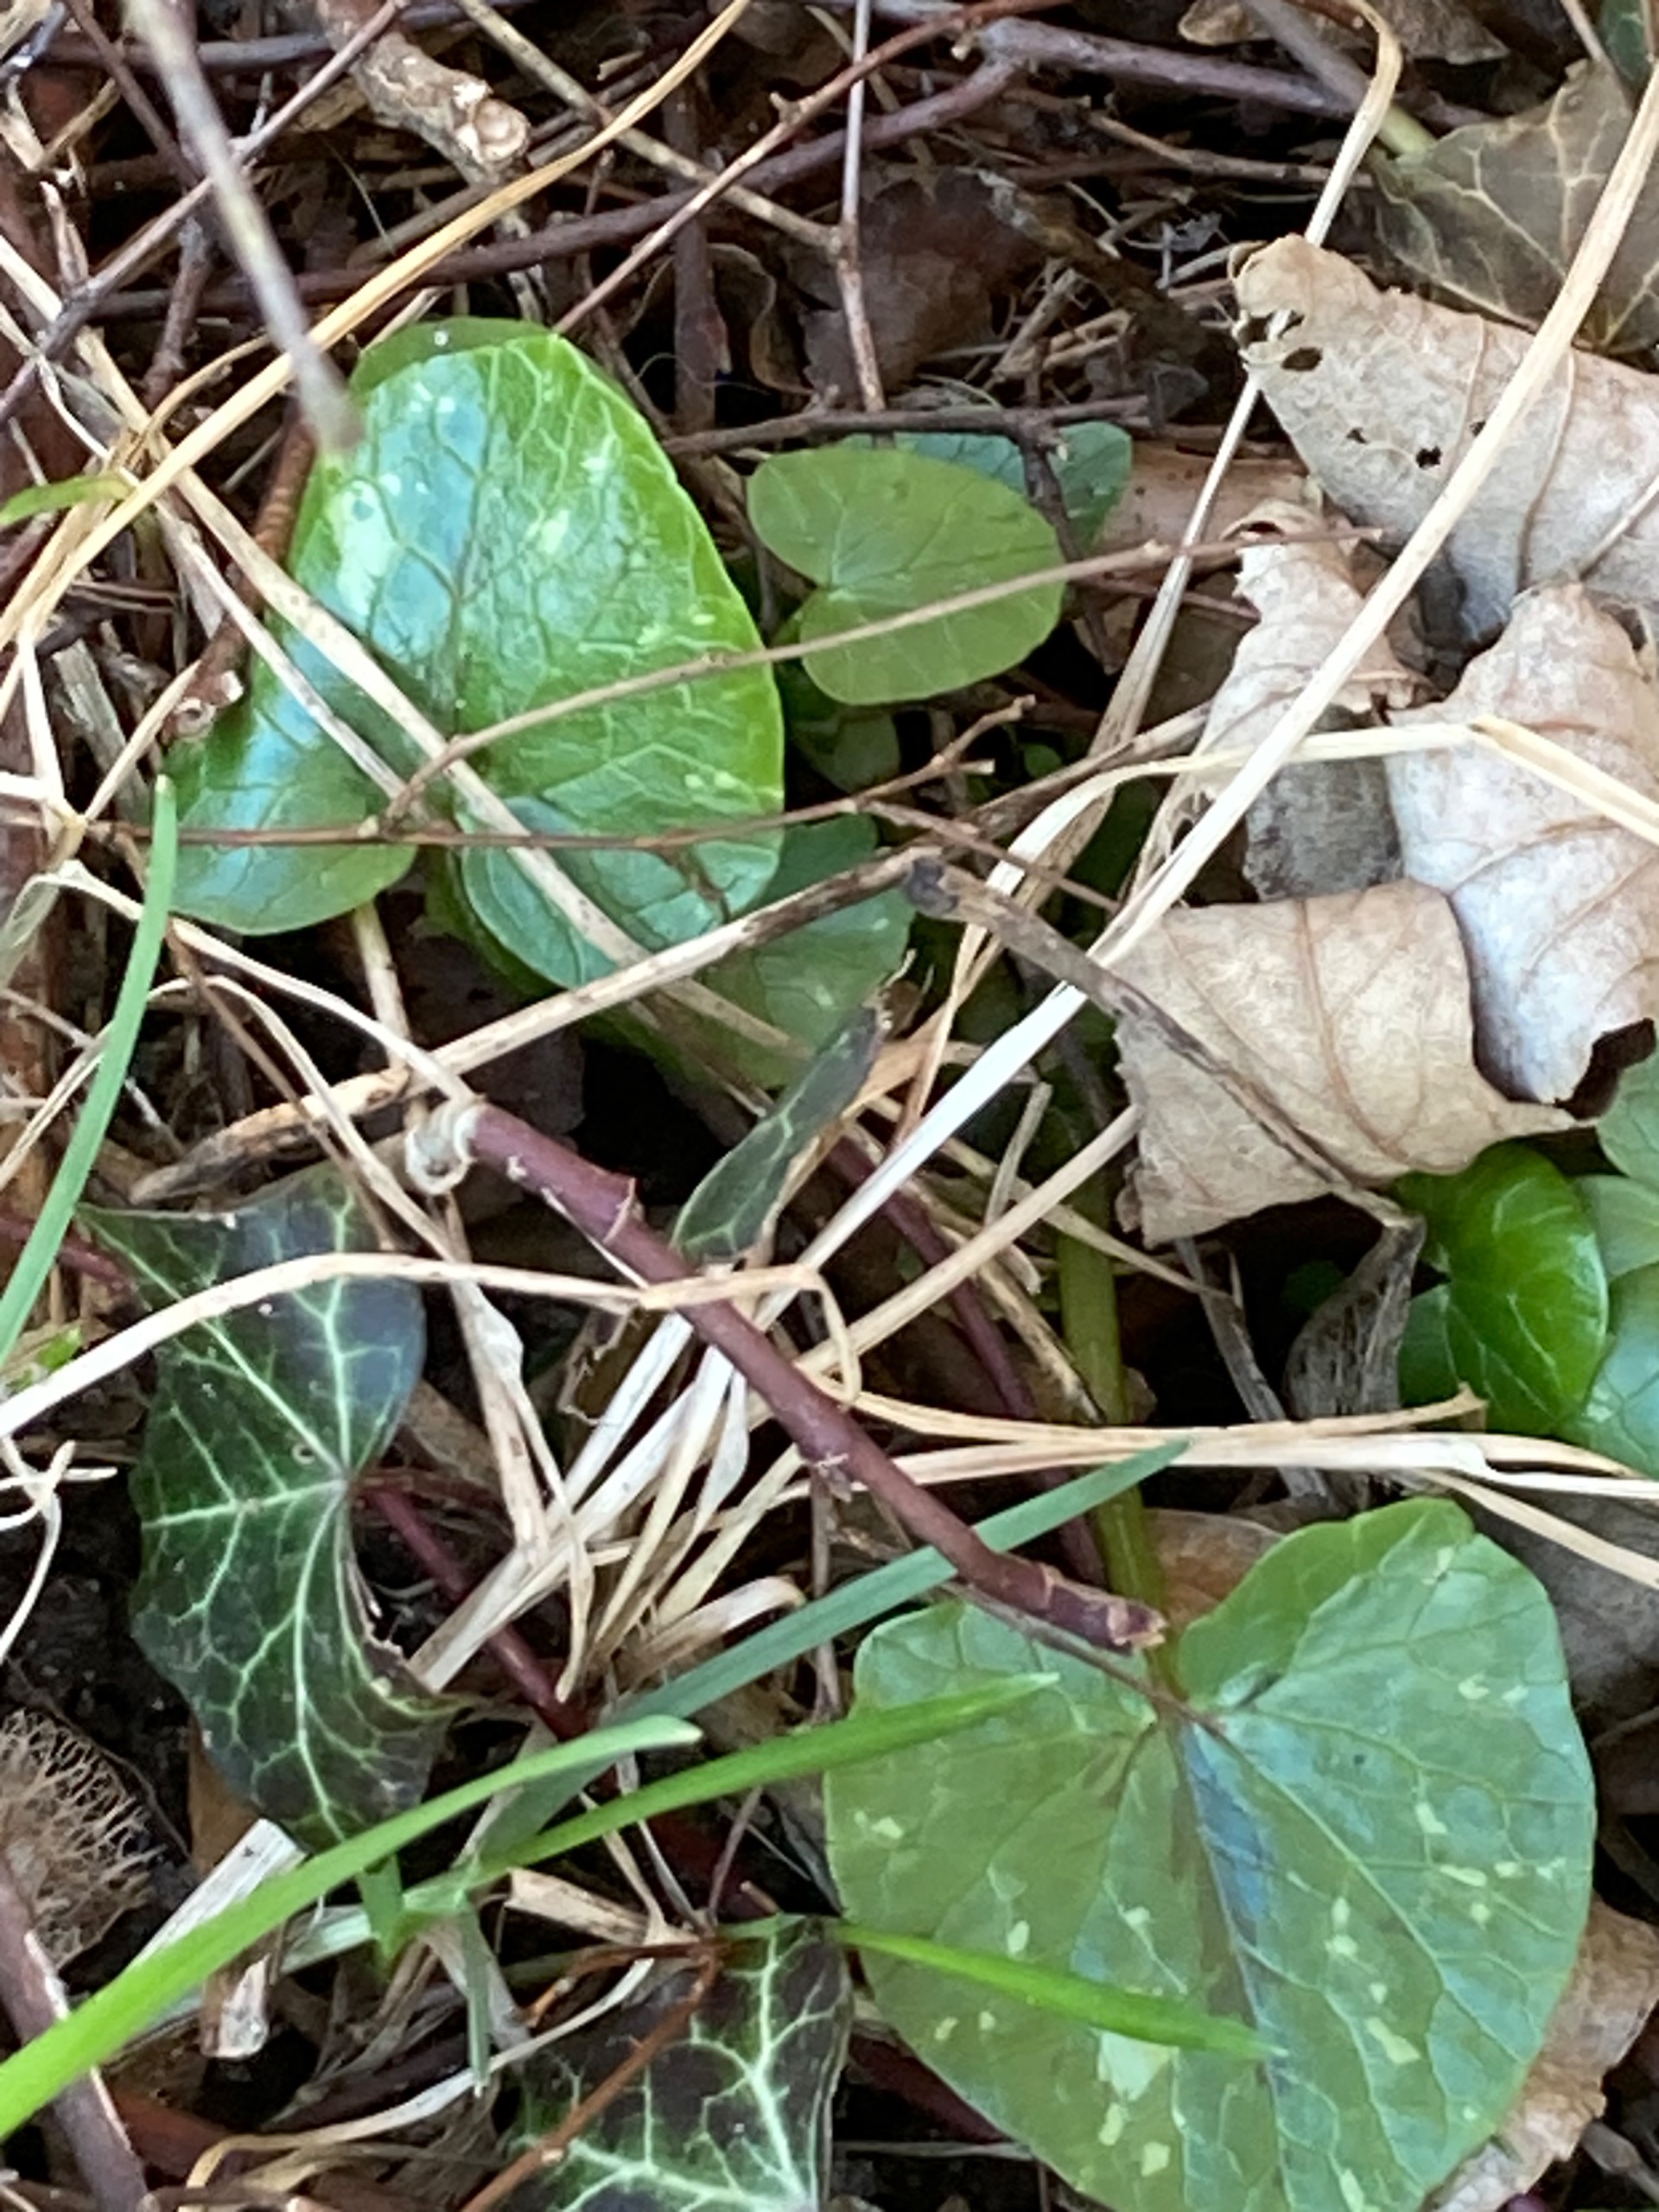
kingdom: Plantae
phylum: Tracheophyta
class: Magnoliopsida
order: Ranunculales
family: Ranunculaceae
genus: Ficaria
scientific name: Ficaria verna
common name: Vorterod
